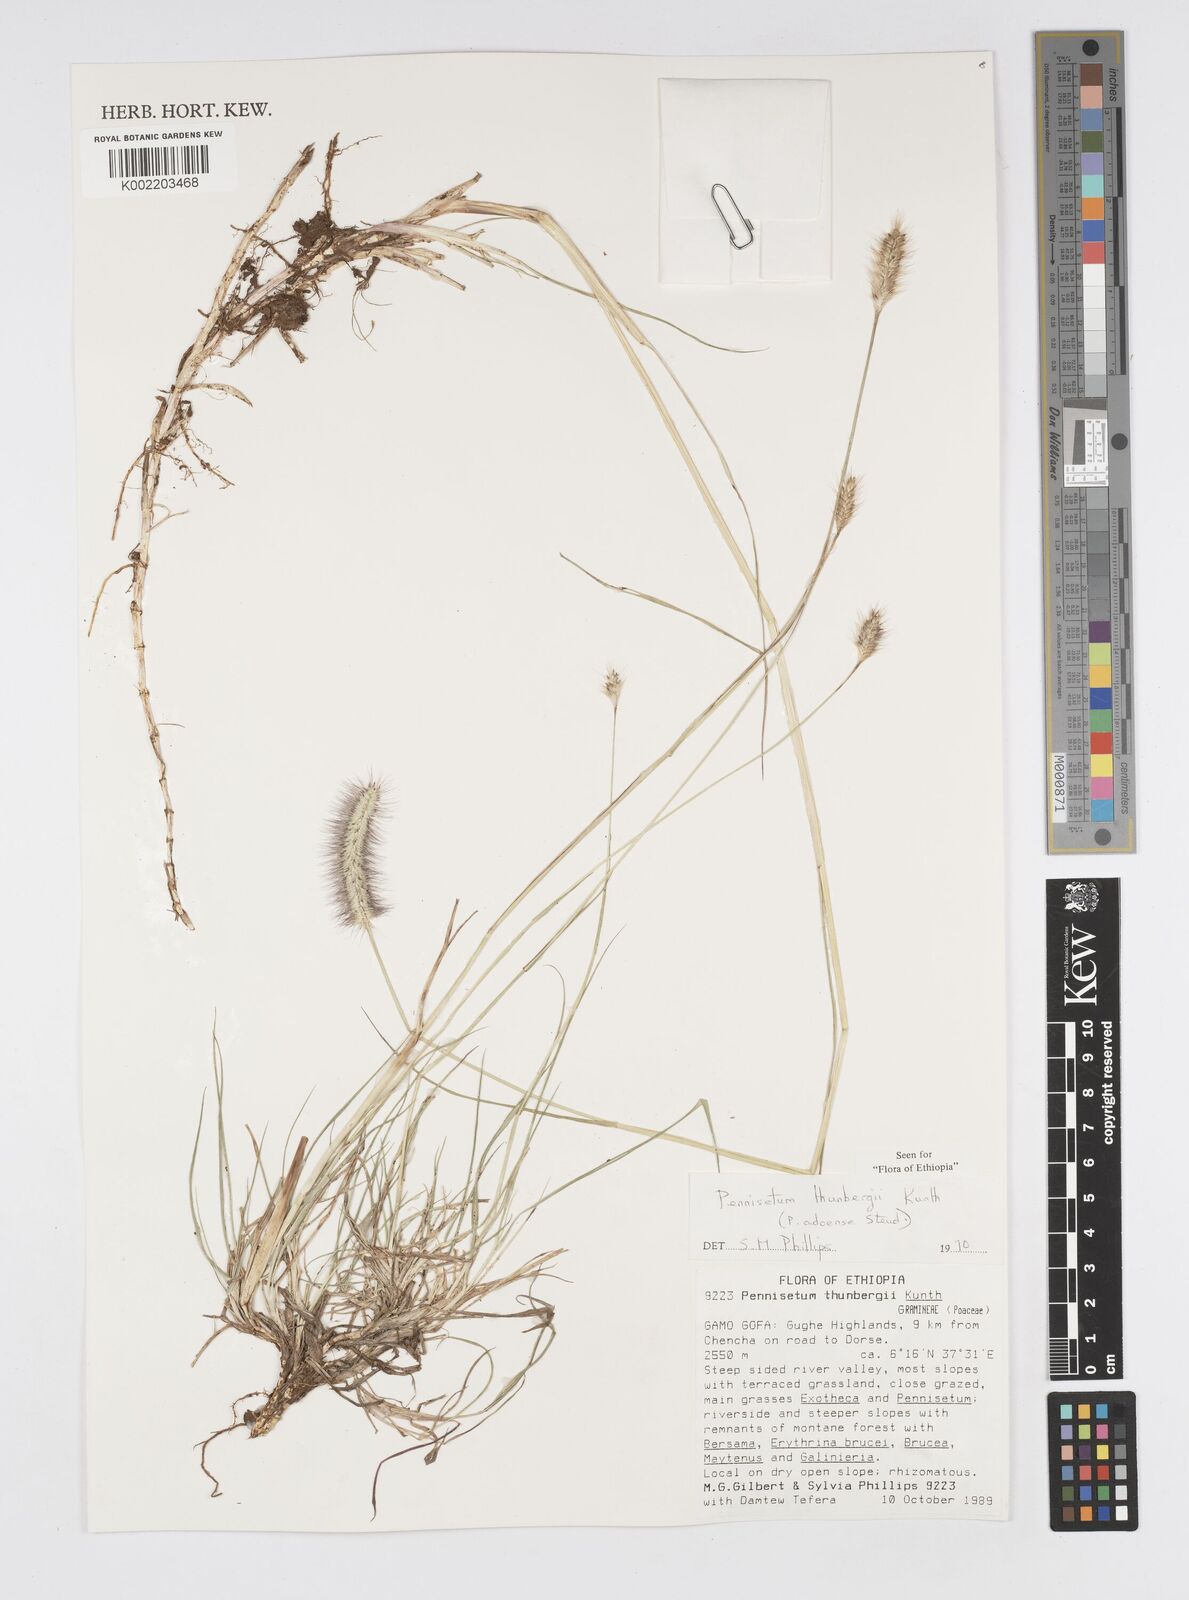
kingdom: Plantae
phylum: Tracheophyta
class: Liliopsida
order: Poales
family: Poaceae
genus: Cenchrus
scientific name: Cenchrus geniculatus
